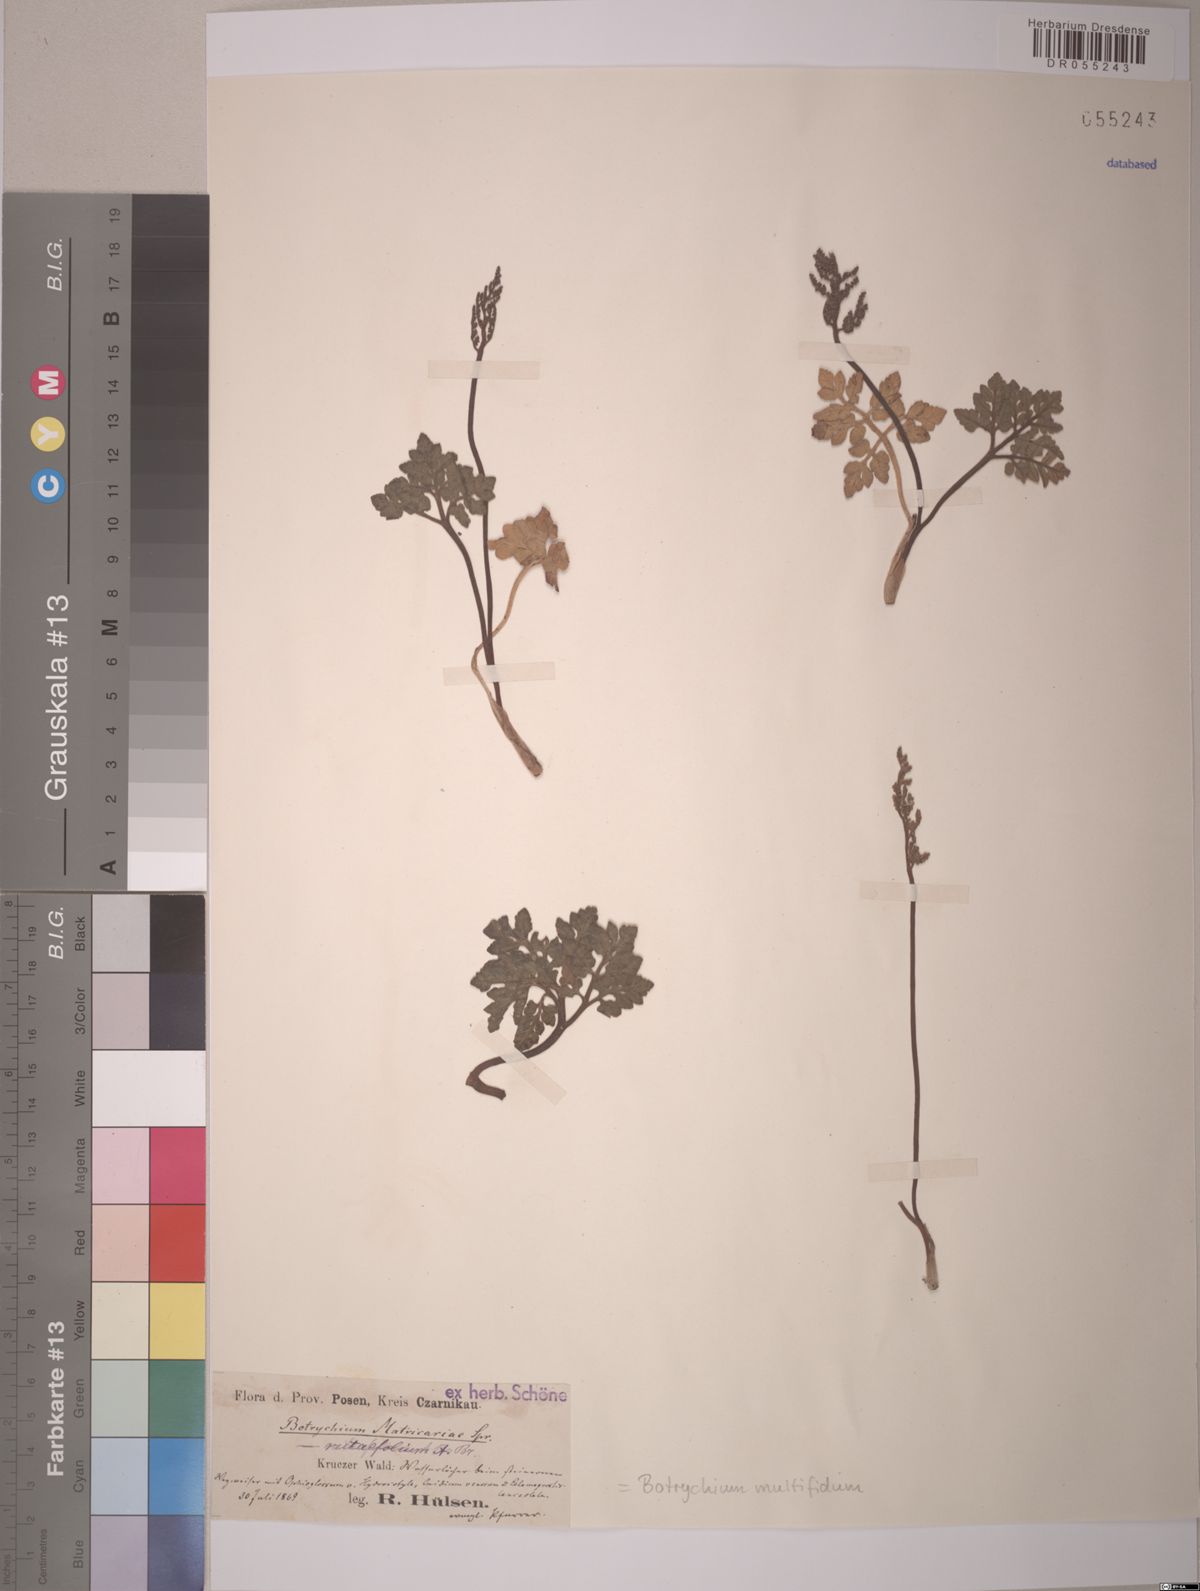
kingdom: Plantae
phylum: Tracheophyta
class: Polypodiopsida
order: Ophioglossales
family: Ophioglossaceae
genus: Sceptridium
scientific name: Sceptridium multifidum
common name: Leathery grape fern
